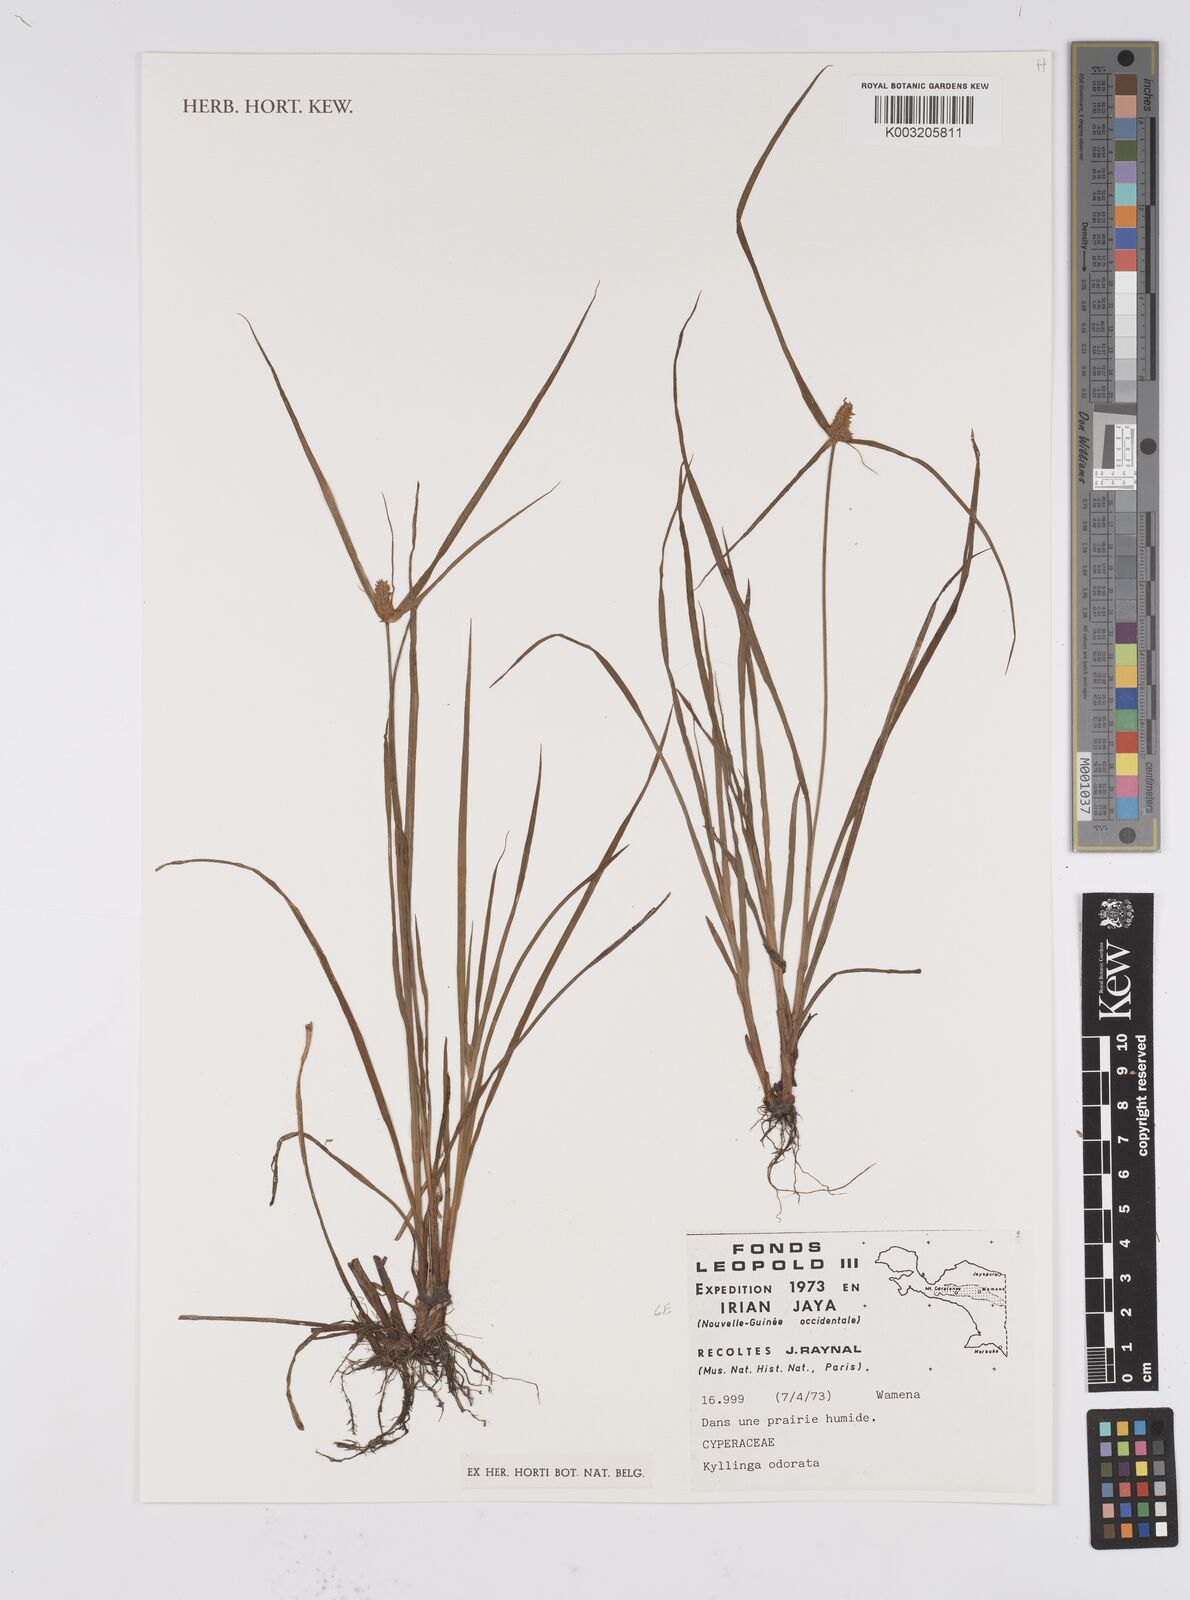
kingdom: Plantae
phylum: Tracheophyta
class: Liliopsida
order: Poales
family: Cyperaceae
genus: Cyperus
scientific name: Cyperus odoratus
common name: Fragrant flatsedge
